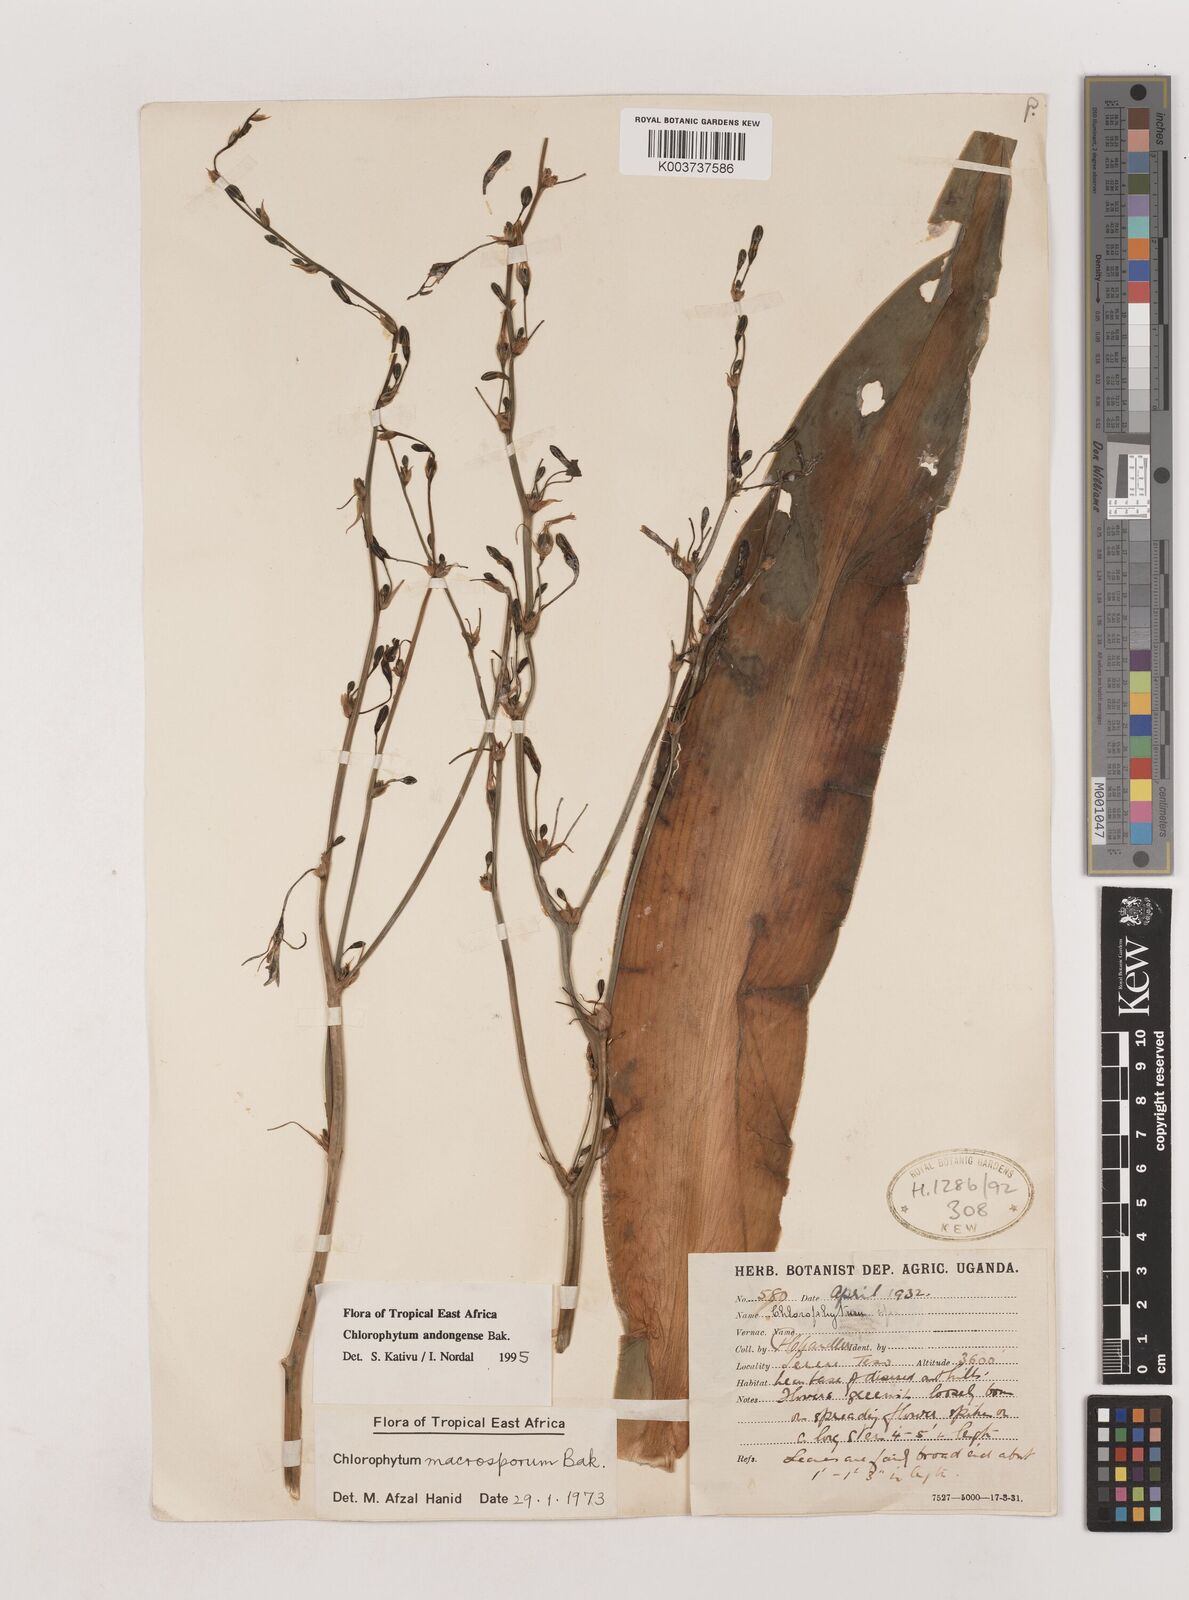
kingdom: Plantae
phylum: Tracheophyta
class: Liliopsida
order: Asparagales
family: Asparagaceae
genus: Chlorophytum
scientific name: Chlorophytum andongense
